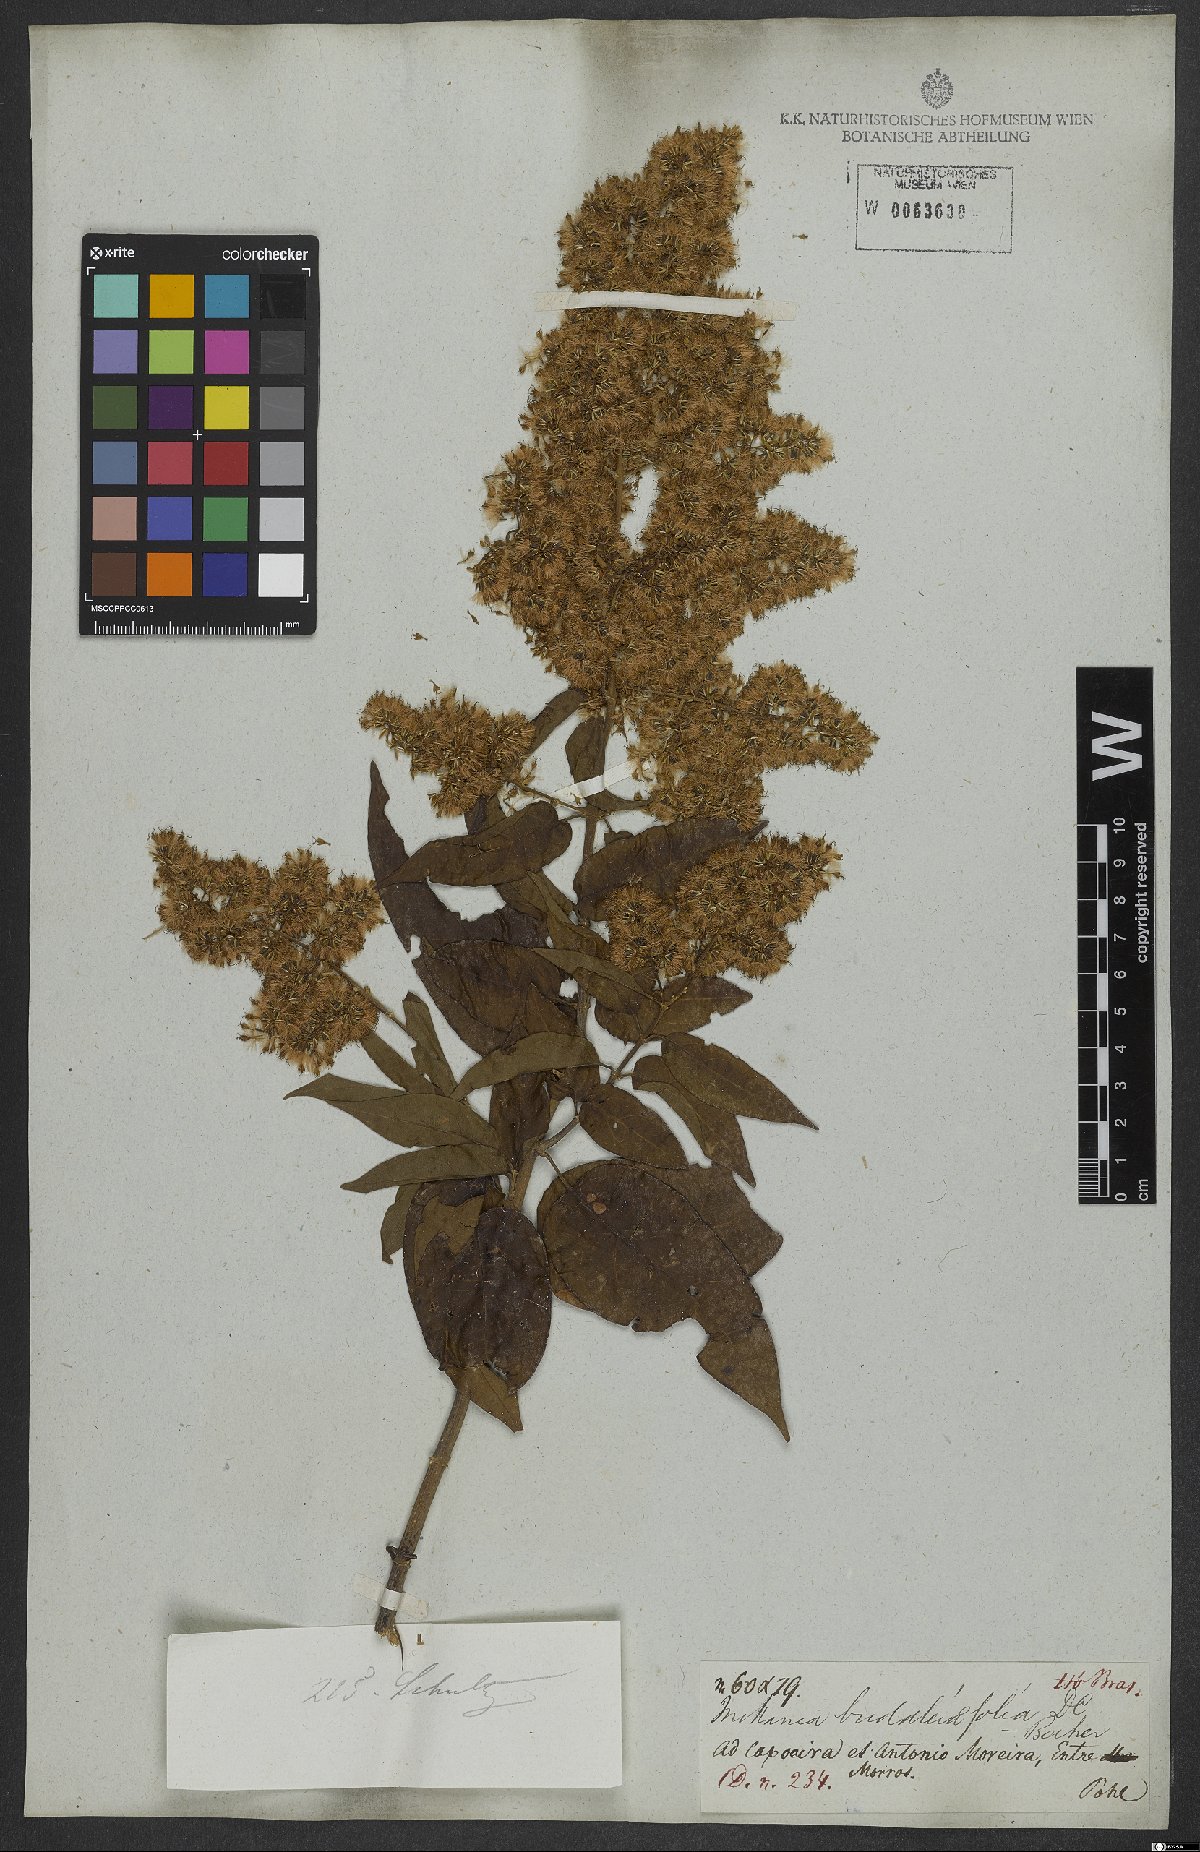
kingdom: Plantae
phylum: Tracheophyta
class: Magnoliopsida
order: Asterales
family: Asteraceae
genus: Mikania
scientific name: Mikania buddlejifolia
